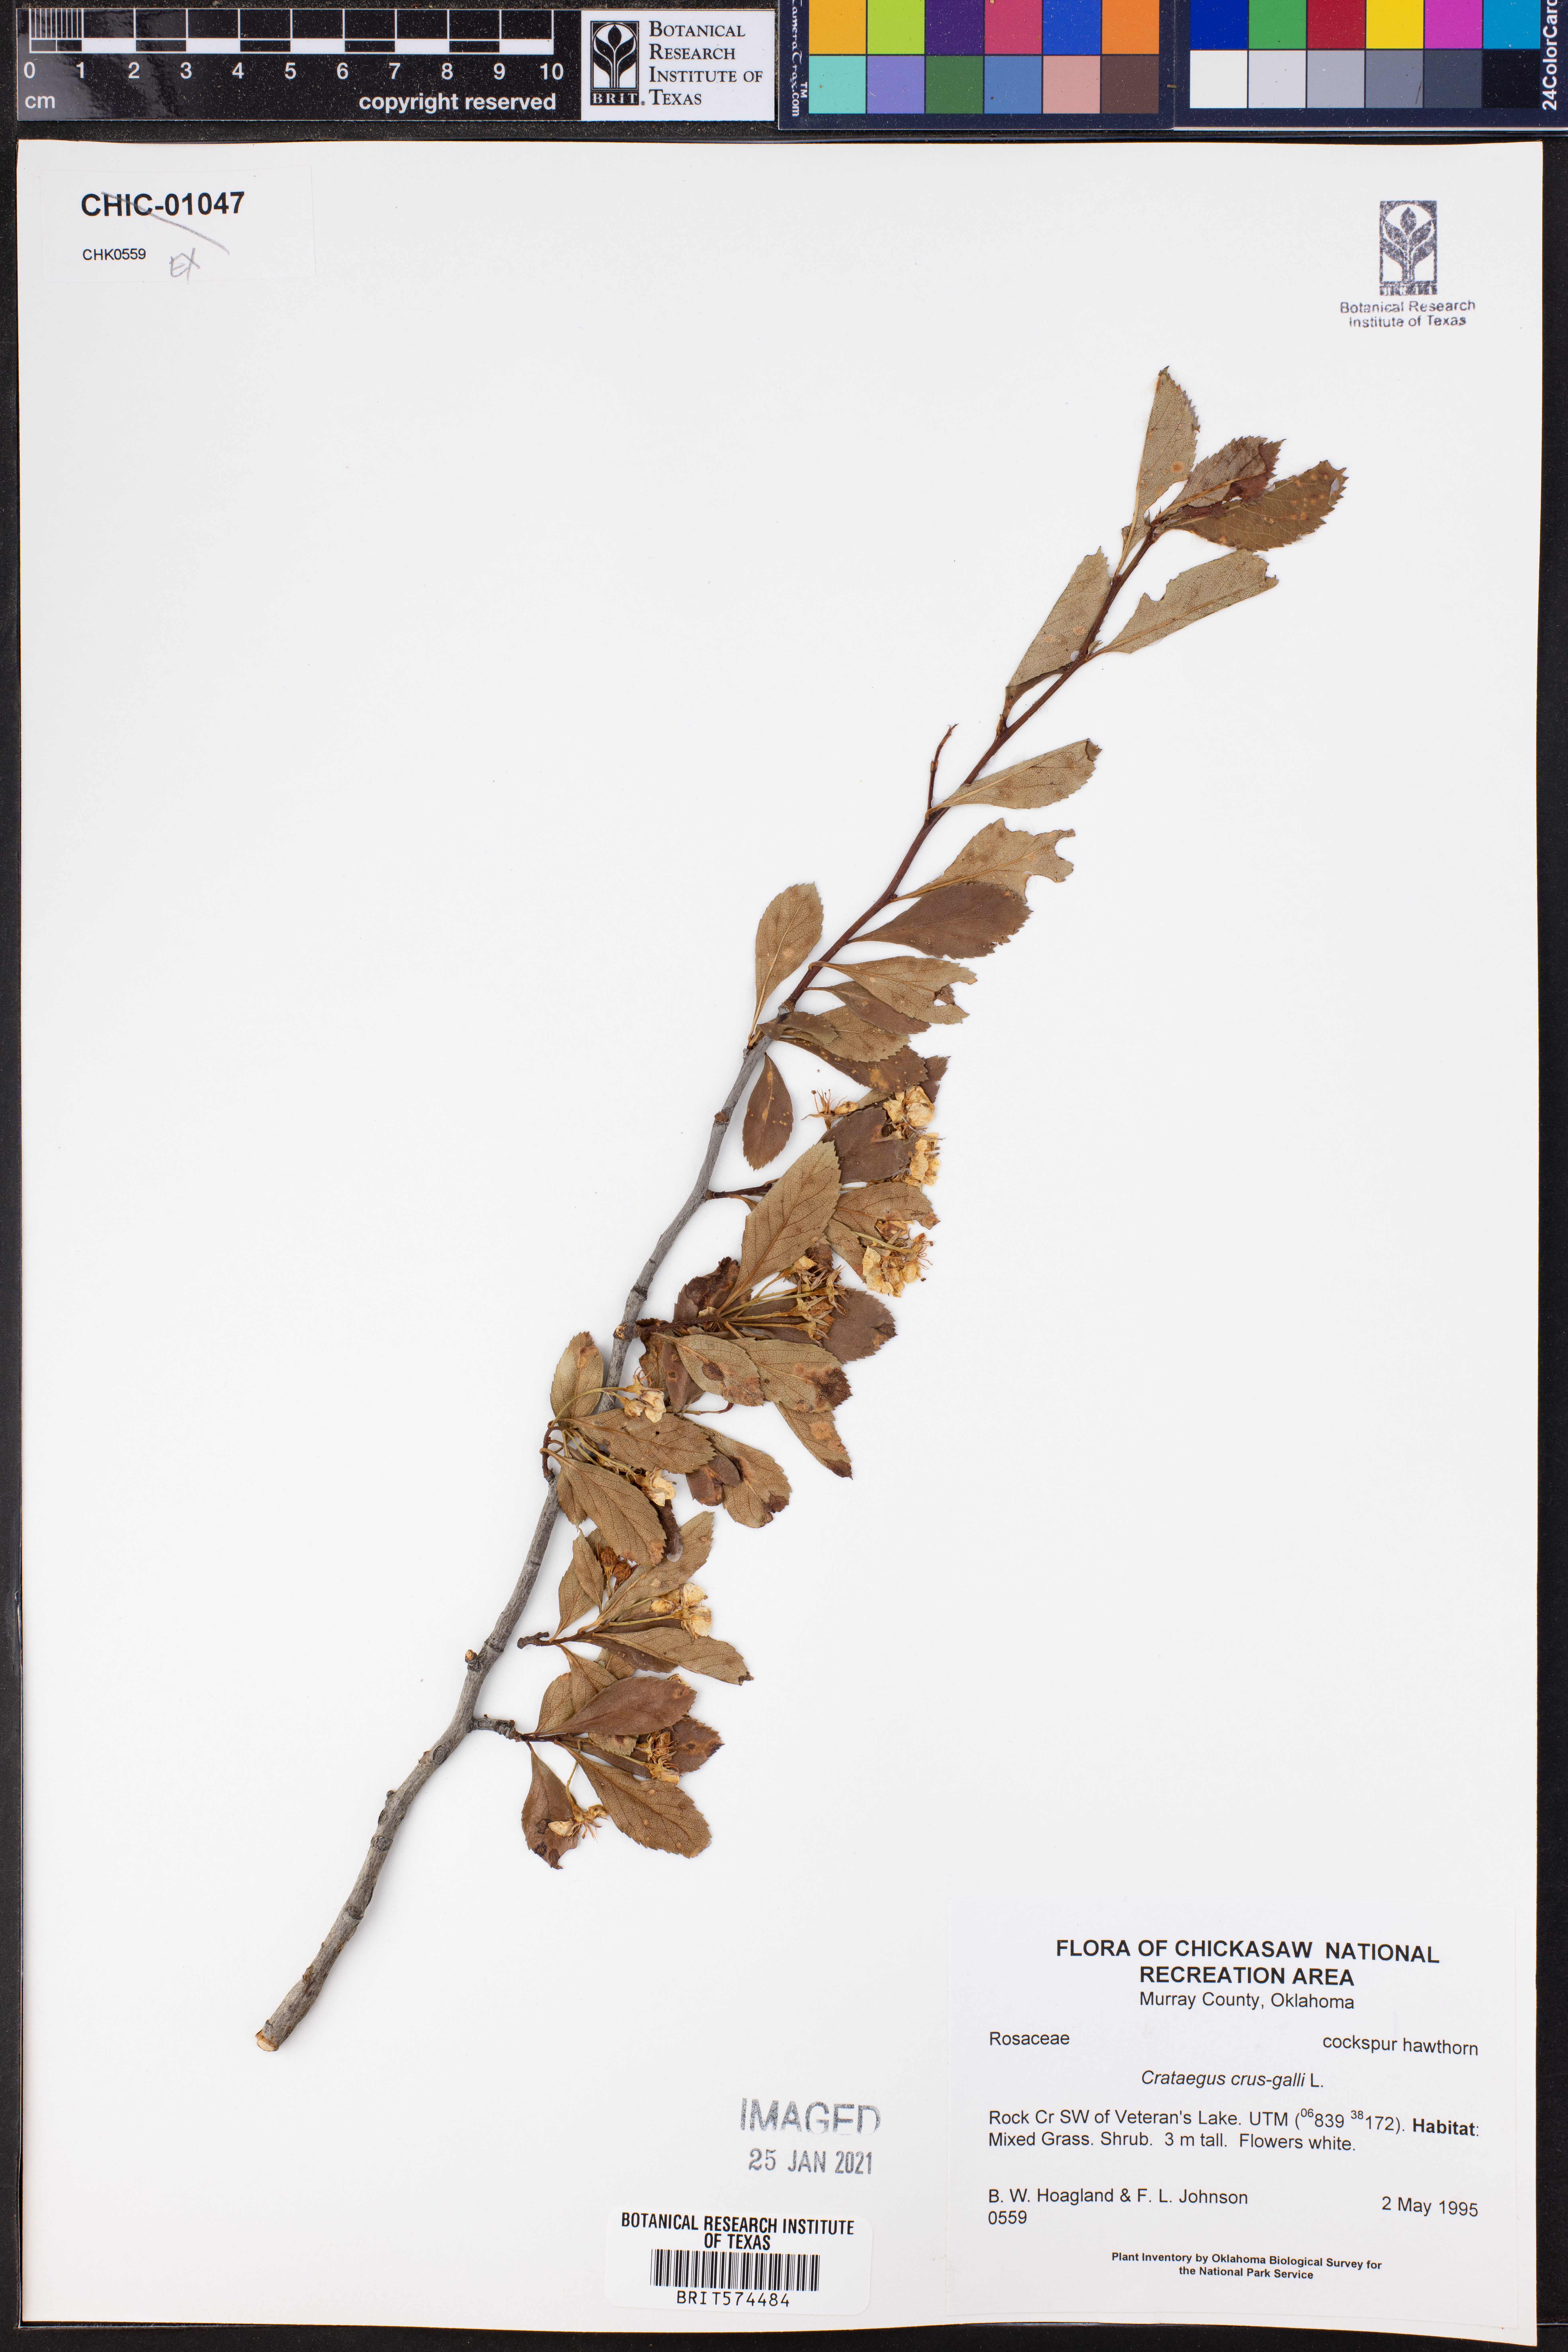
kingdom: Plantae
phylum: Tracheophyta
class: Magnoliopsida
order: Rosales
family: Rosaceae
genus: Crataegus
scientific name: Crataegus crus-galli
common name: Cockspurthorn
